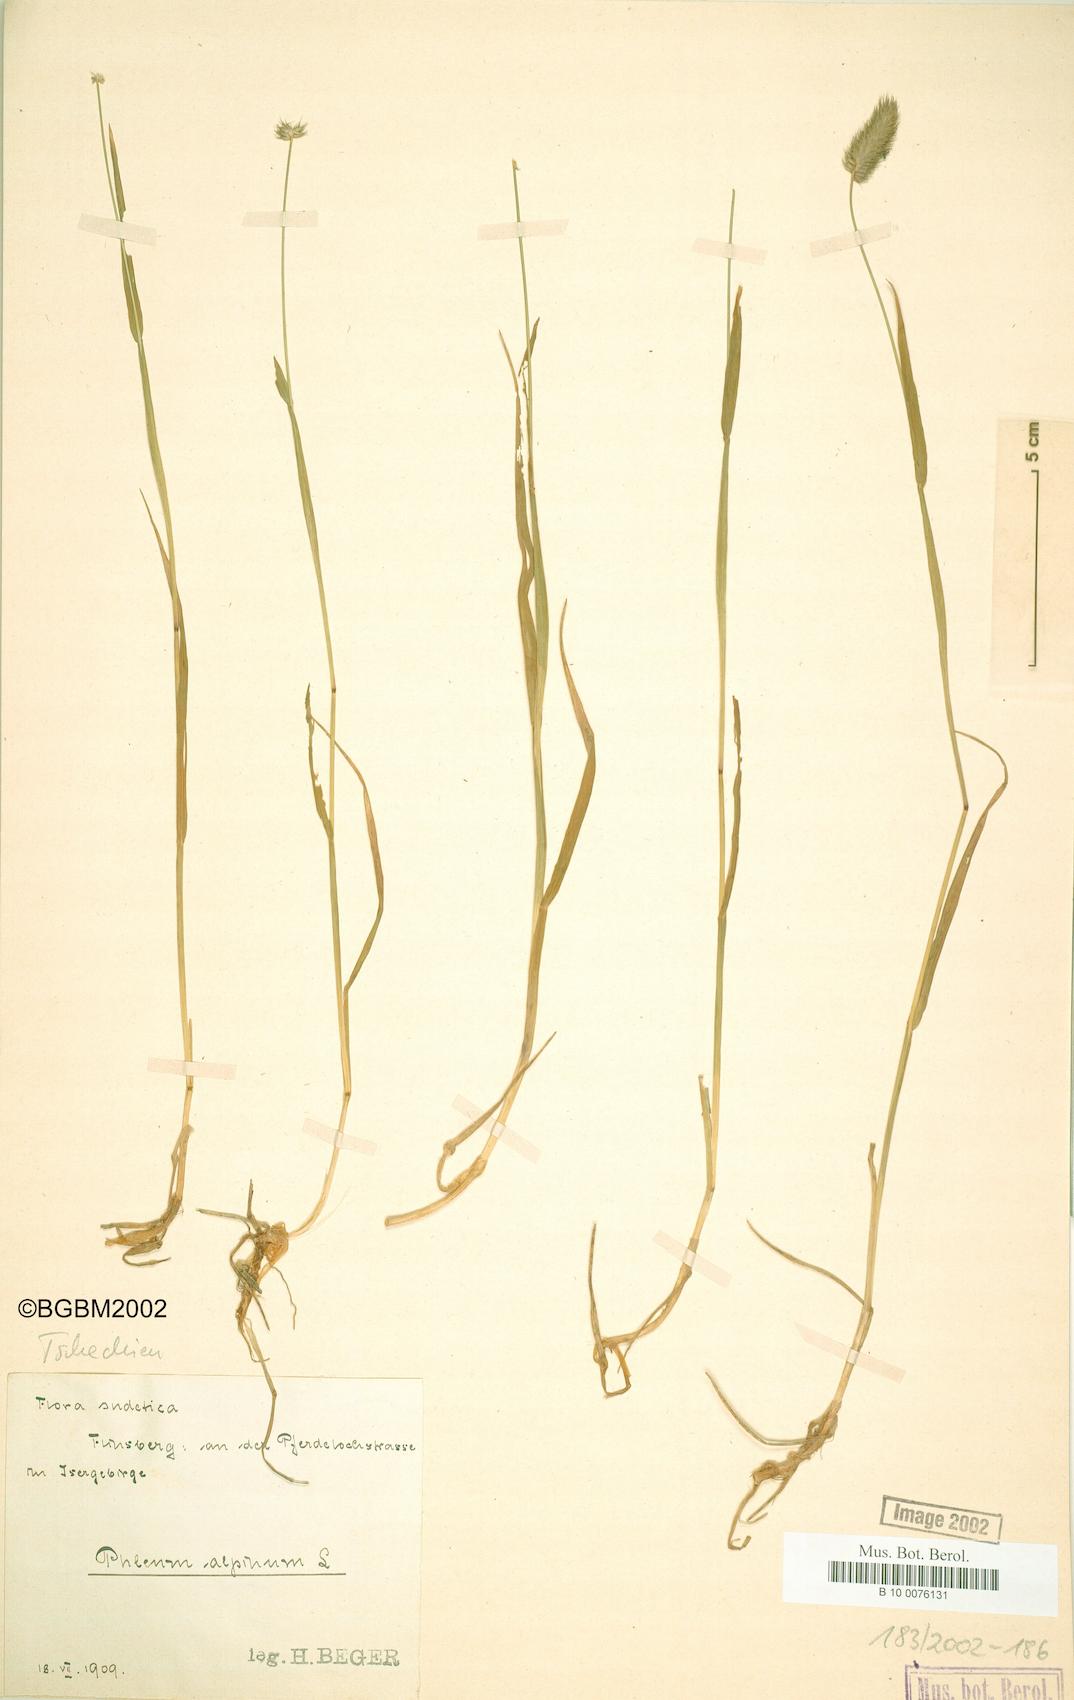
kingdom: Plantae
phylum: Tracheophyta
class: Liliopsida
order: Poales
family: Poaceae
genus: Phleum
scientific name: Phleum alpinum
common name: Alpine cat's-tail
